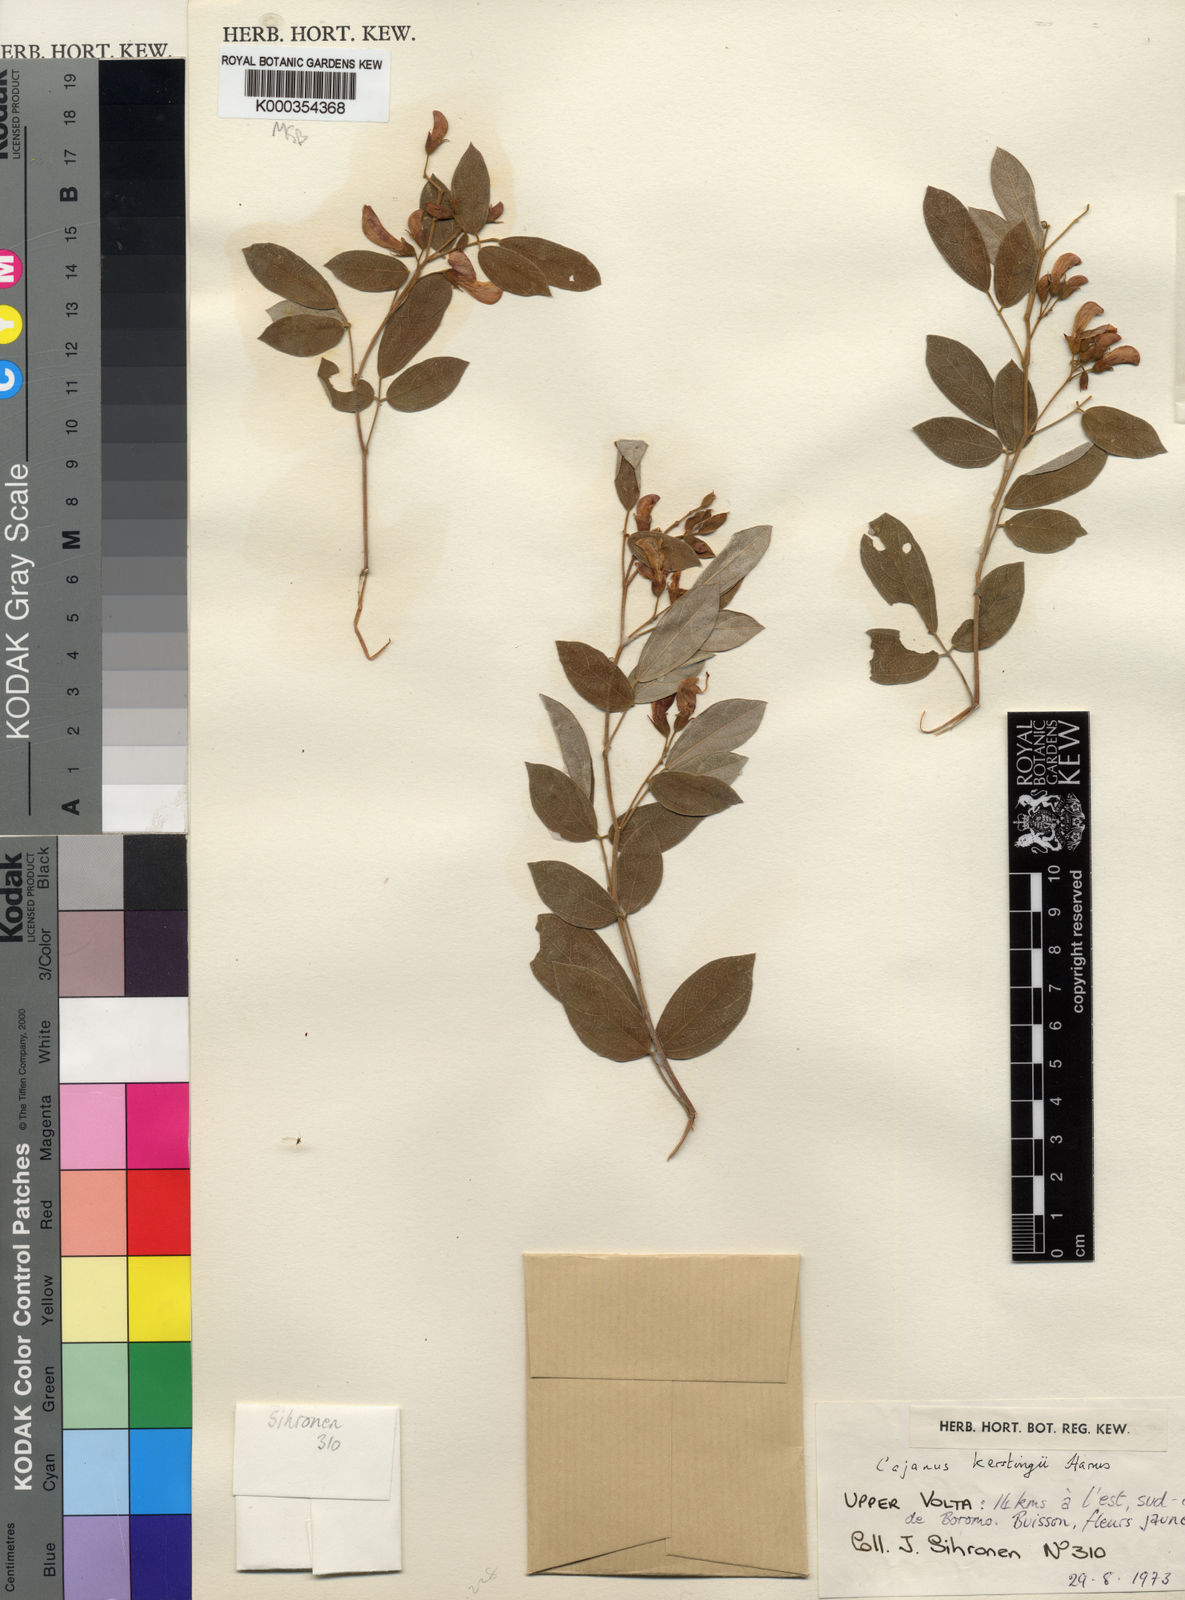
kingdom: Plantae
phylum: Tracheophyta
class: Magnoliopsida
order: Fabales
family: Fabaceae
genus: Cajanus
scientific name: Cajanus kerstingii
